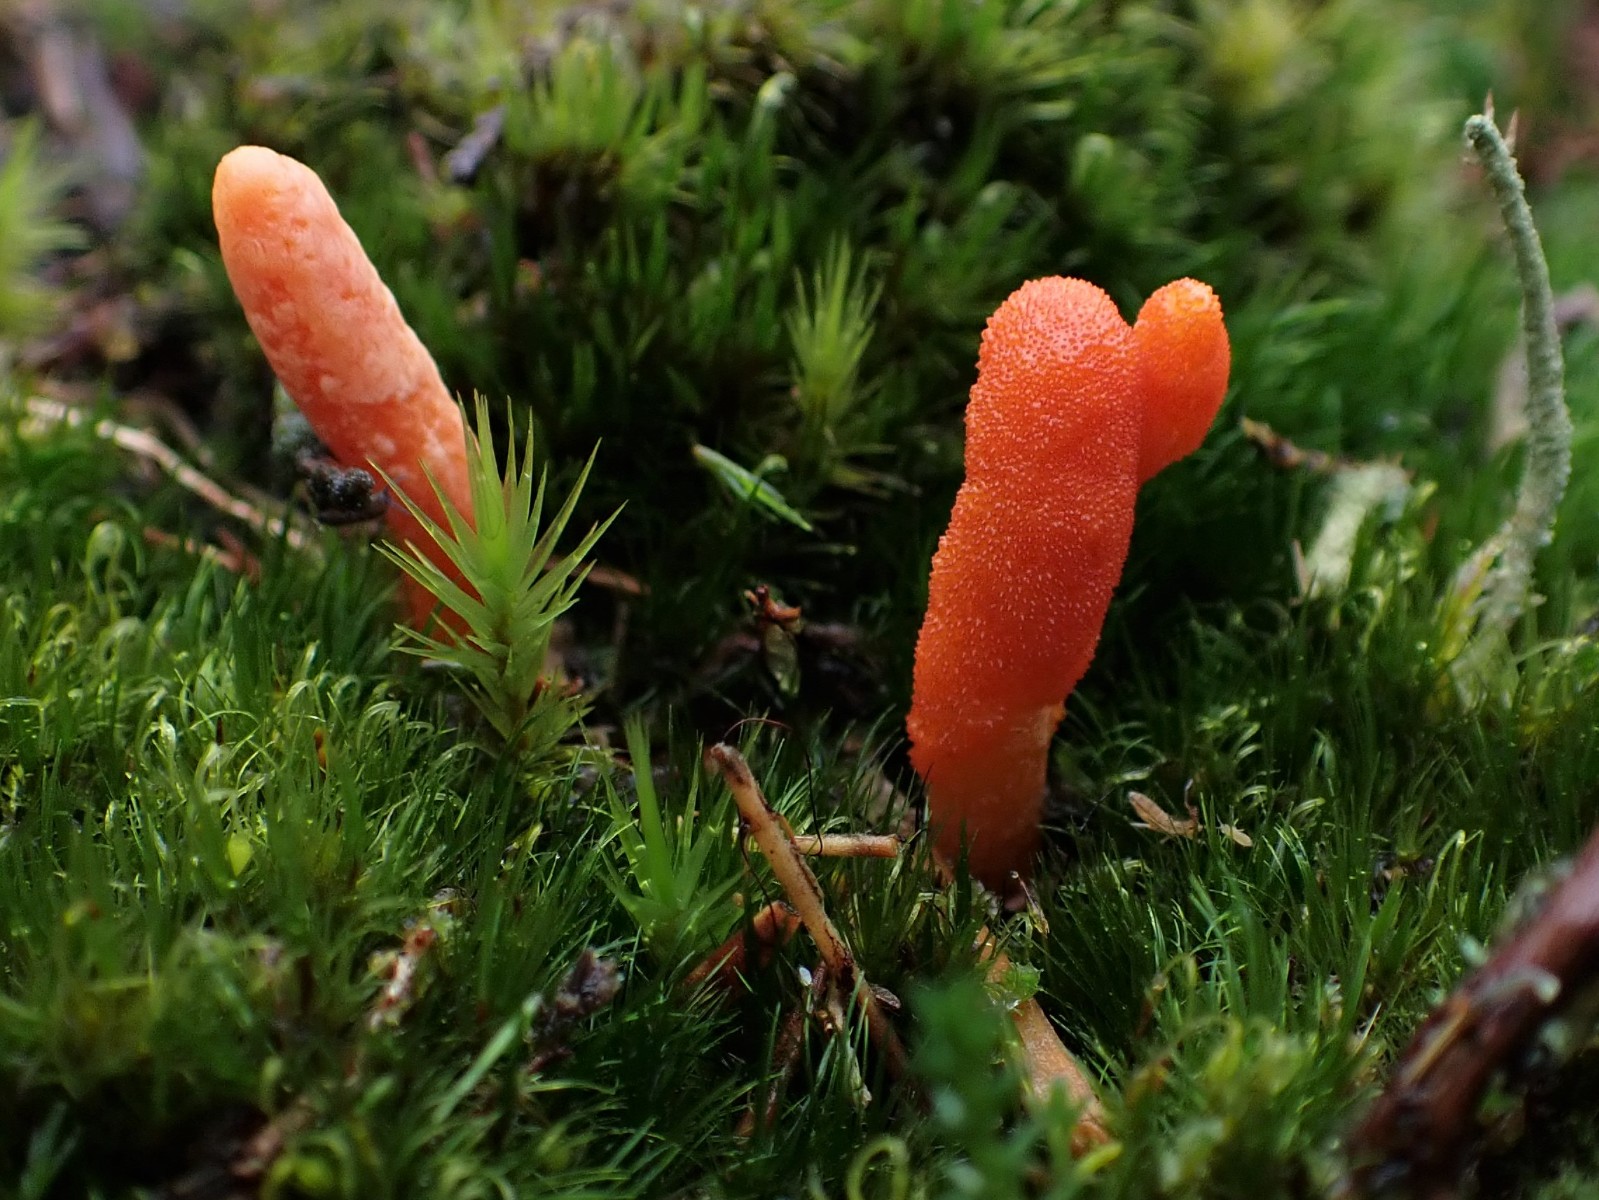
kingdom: Fungi
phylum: Ascomycota
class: Sordariomycetes
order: Hypocreales
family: Cordycipitaceae
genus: Cordyceps
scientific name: Cordyceps militaris
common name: puppe-snyltekølle
